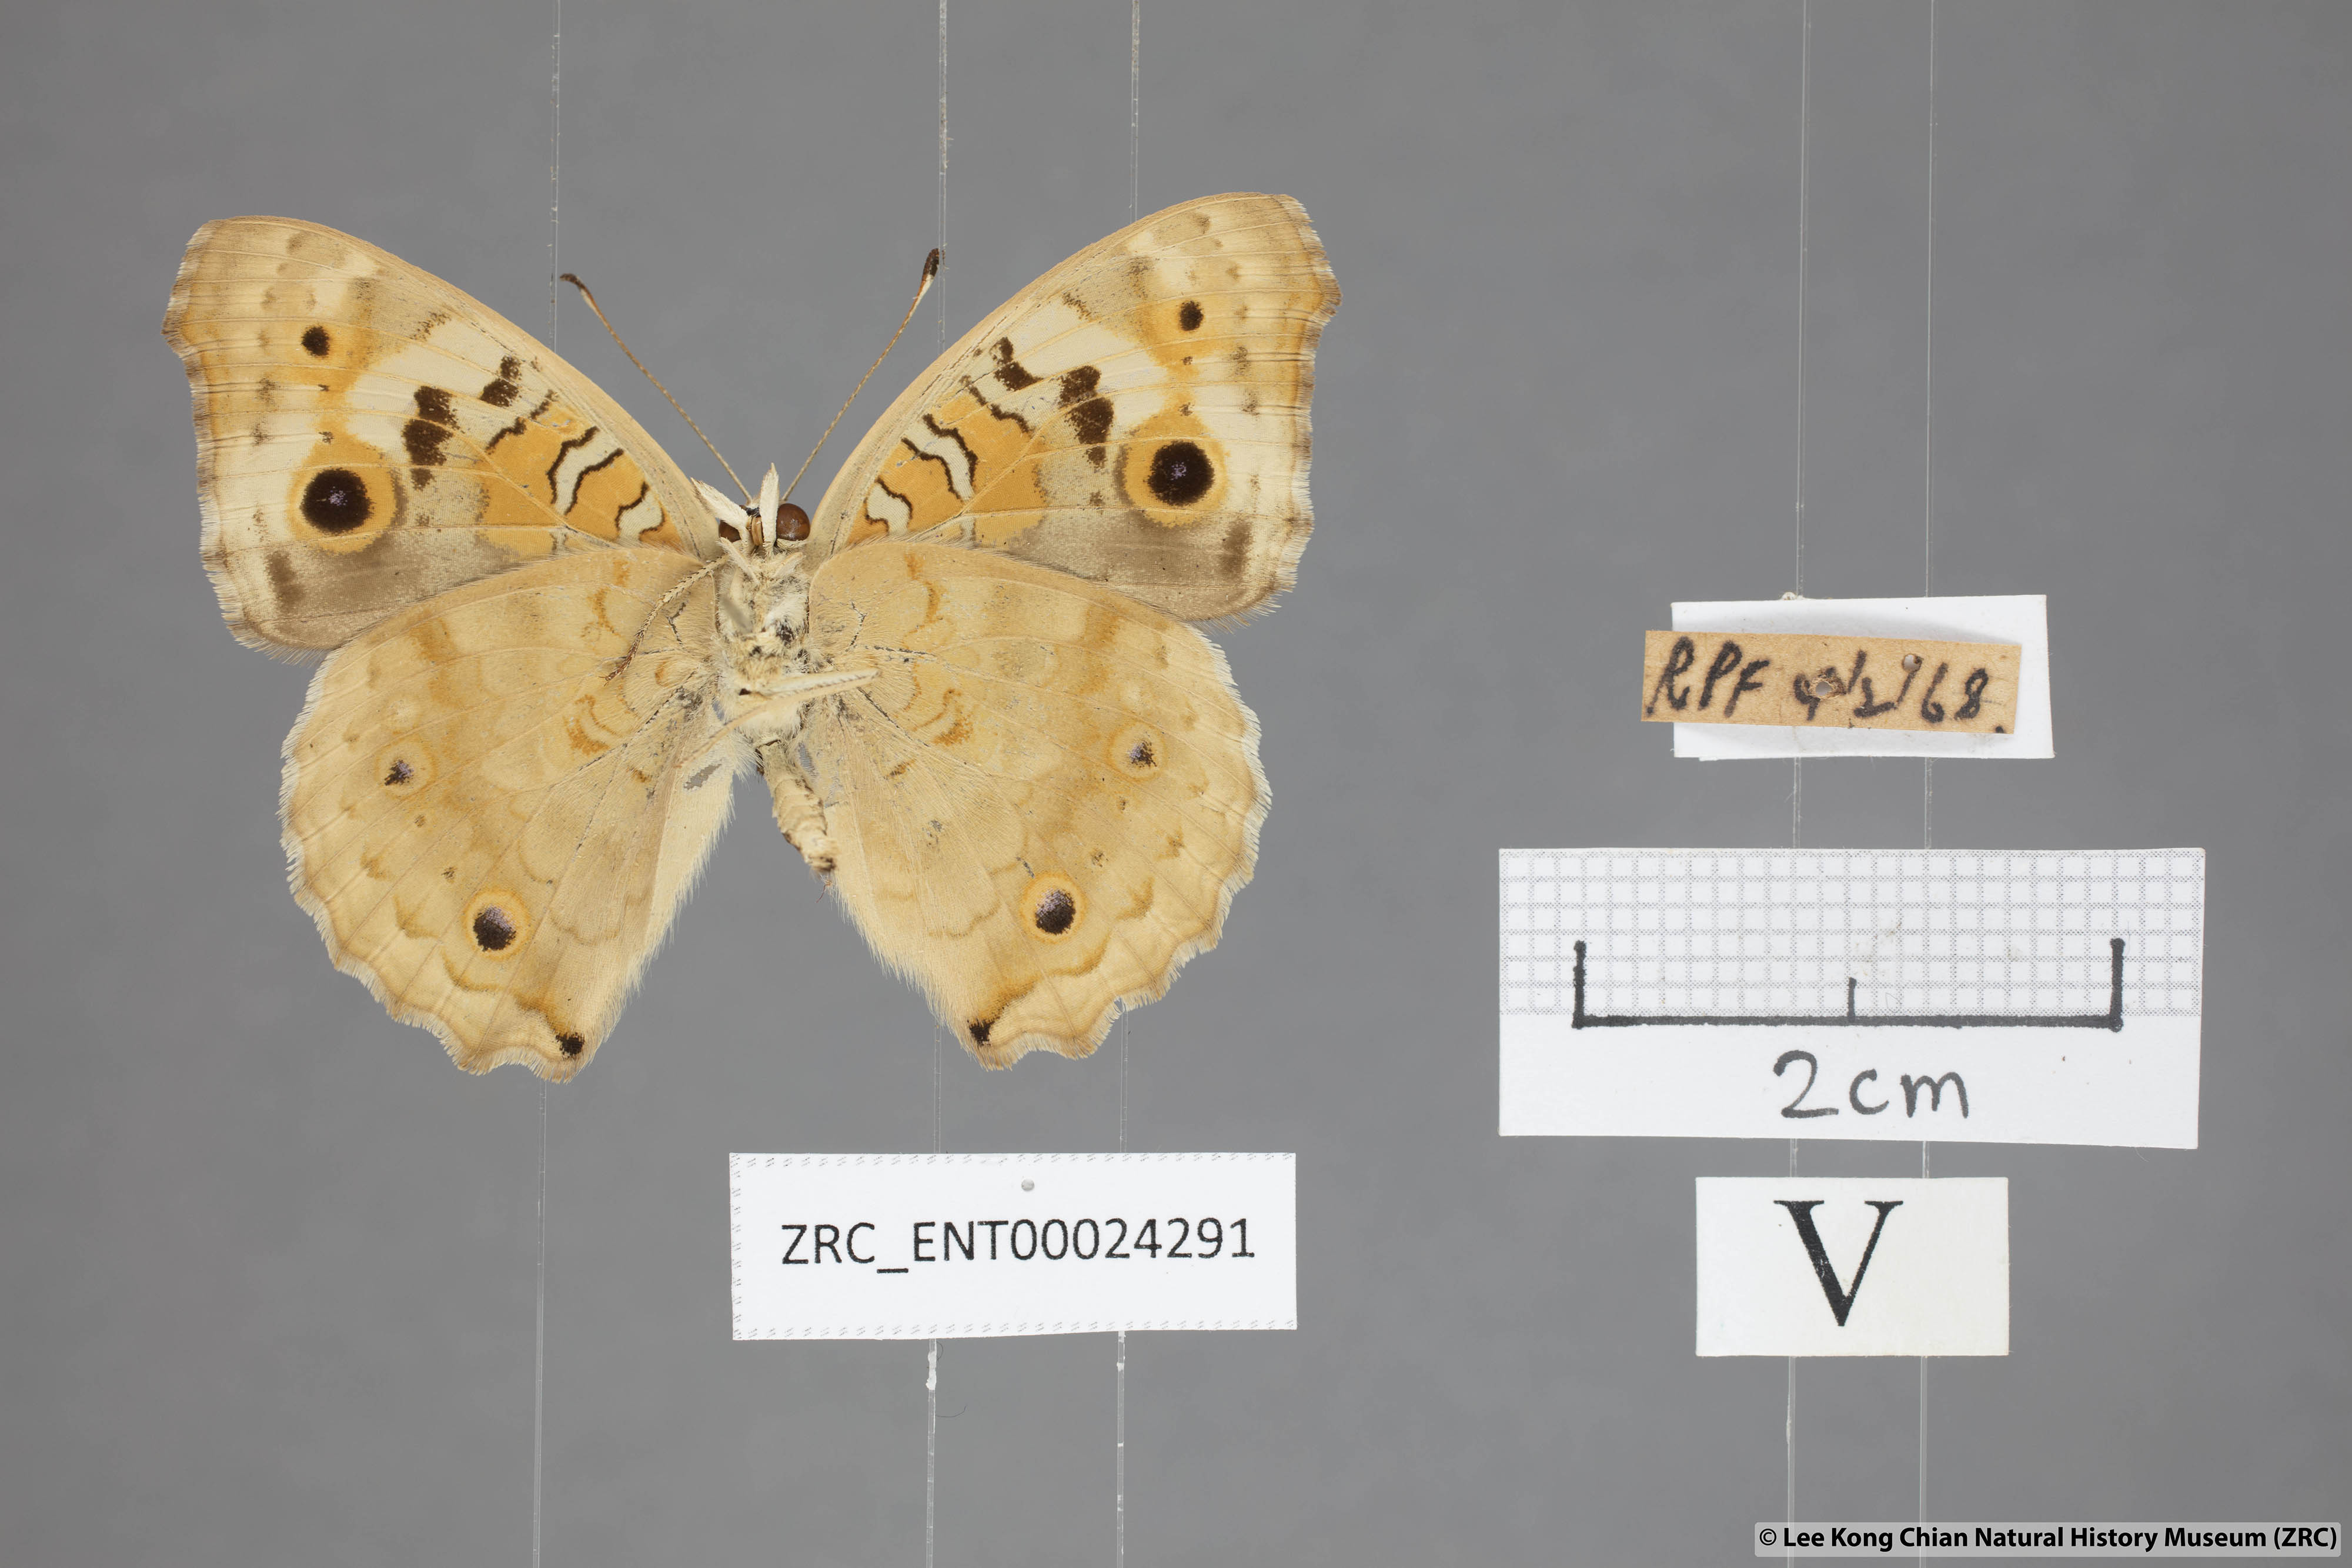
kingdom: Animalia
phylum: Arthropoda
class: Insecta
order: Lepidoptera
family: Nymphalidae
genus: Junonia
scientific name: Junonia orithya
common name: Blue pansy
